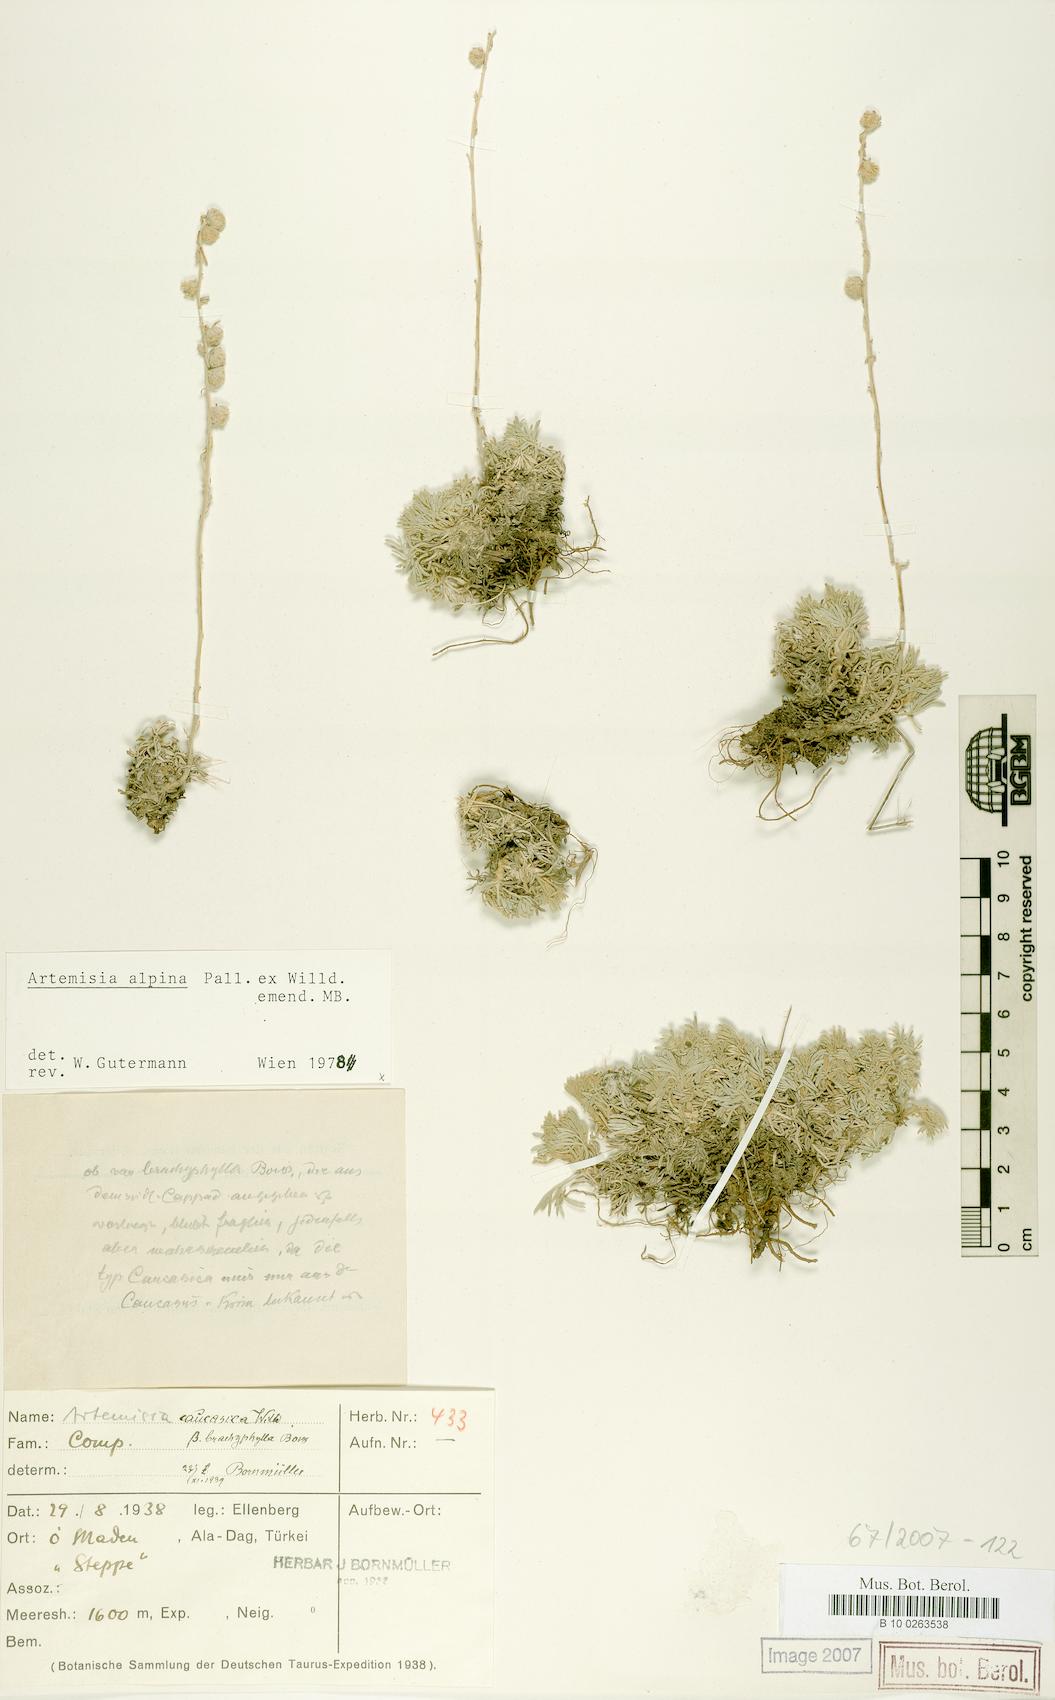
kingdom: Plantae
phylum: Tracheophyta
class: Magnoliopsida
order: Asterales
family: Asteraceae
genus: Artemisia
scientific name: Artemisia alpina
